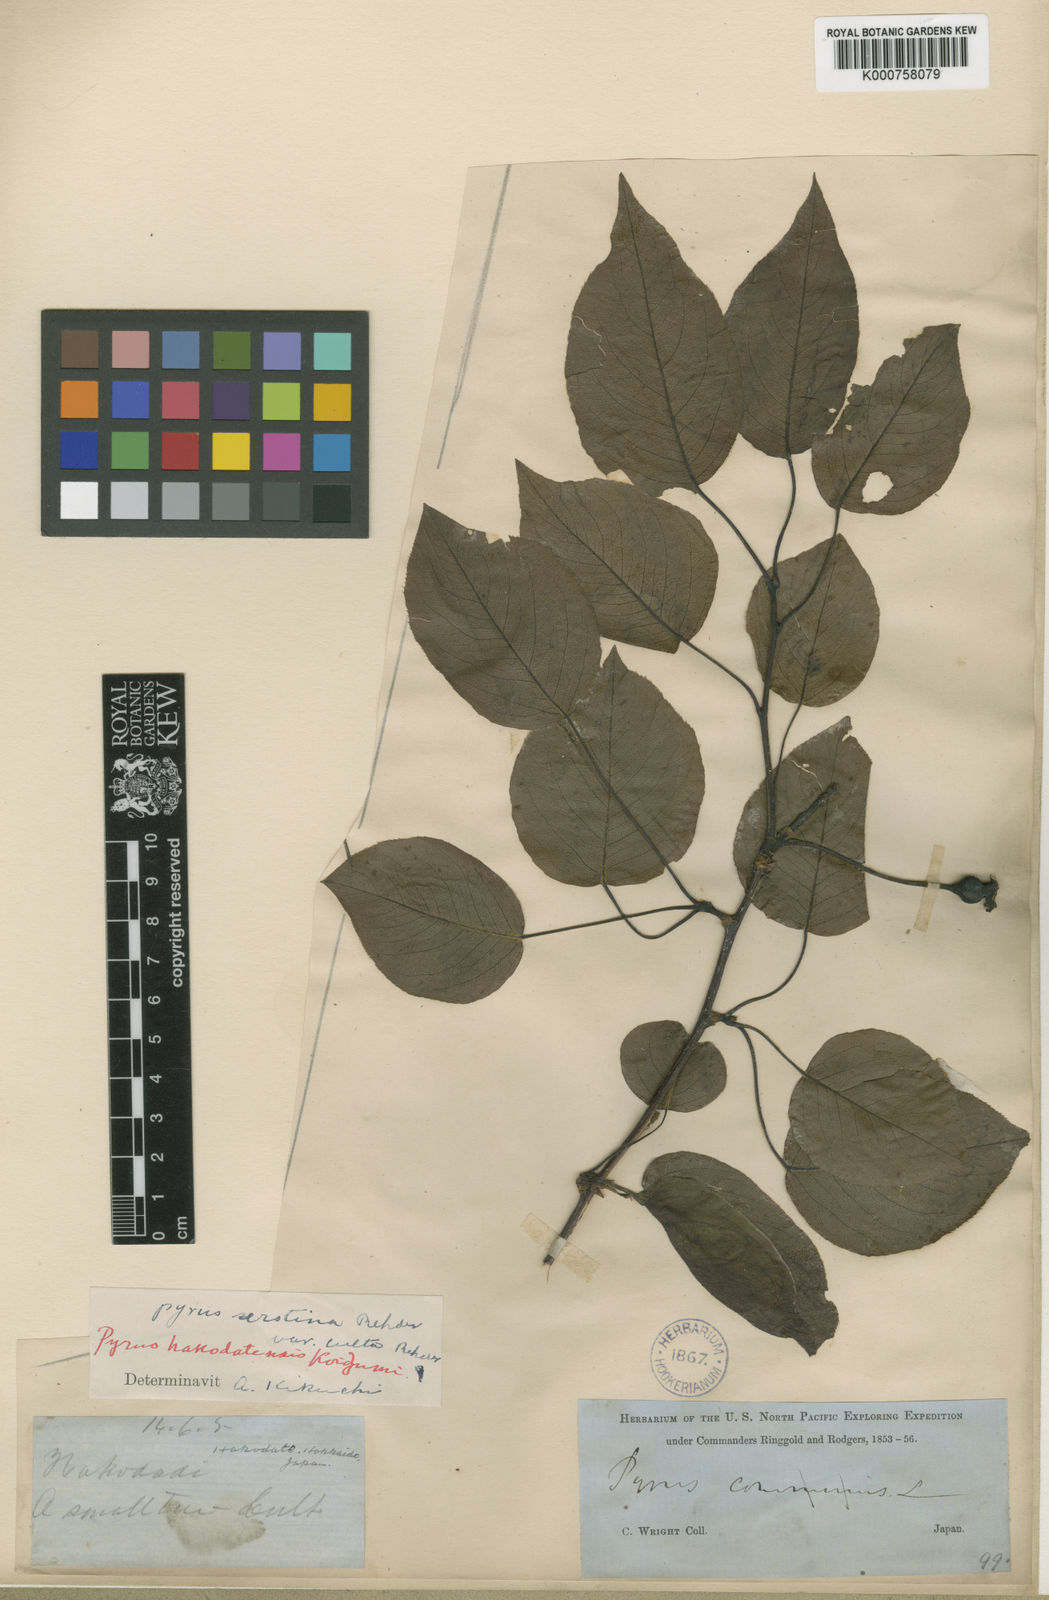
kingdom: Plantae
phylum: Tracheophyta
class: Magnoliopsida
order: Rosales
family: Rosaceae
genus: Pyrus
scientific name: Pyrus ussuriensis
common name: Harbin pear
